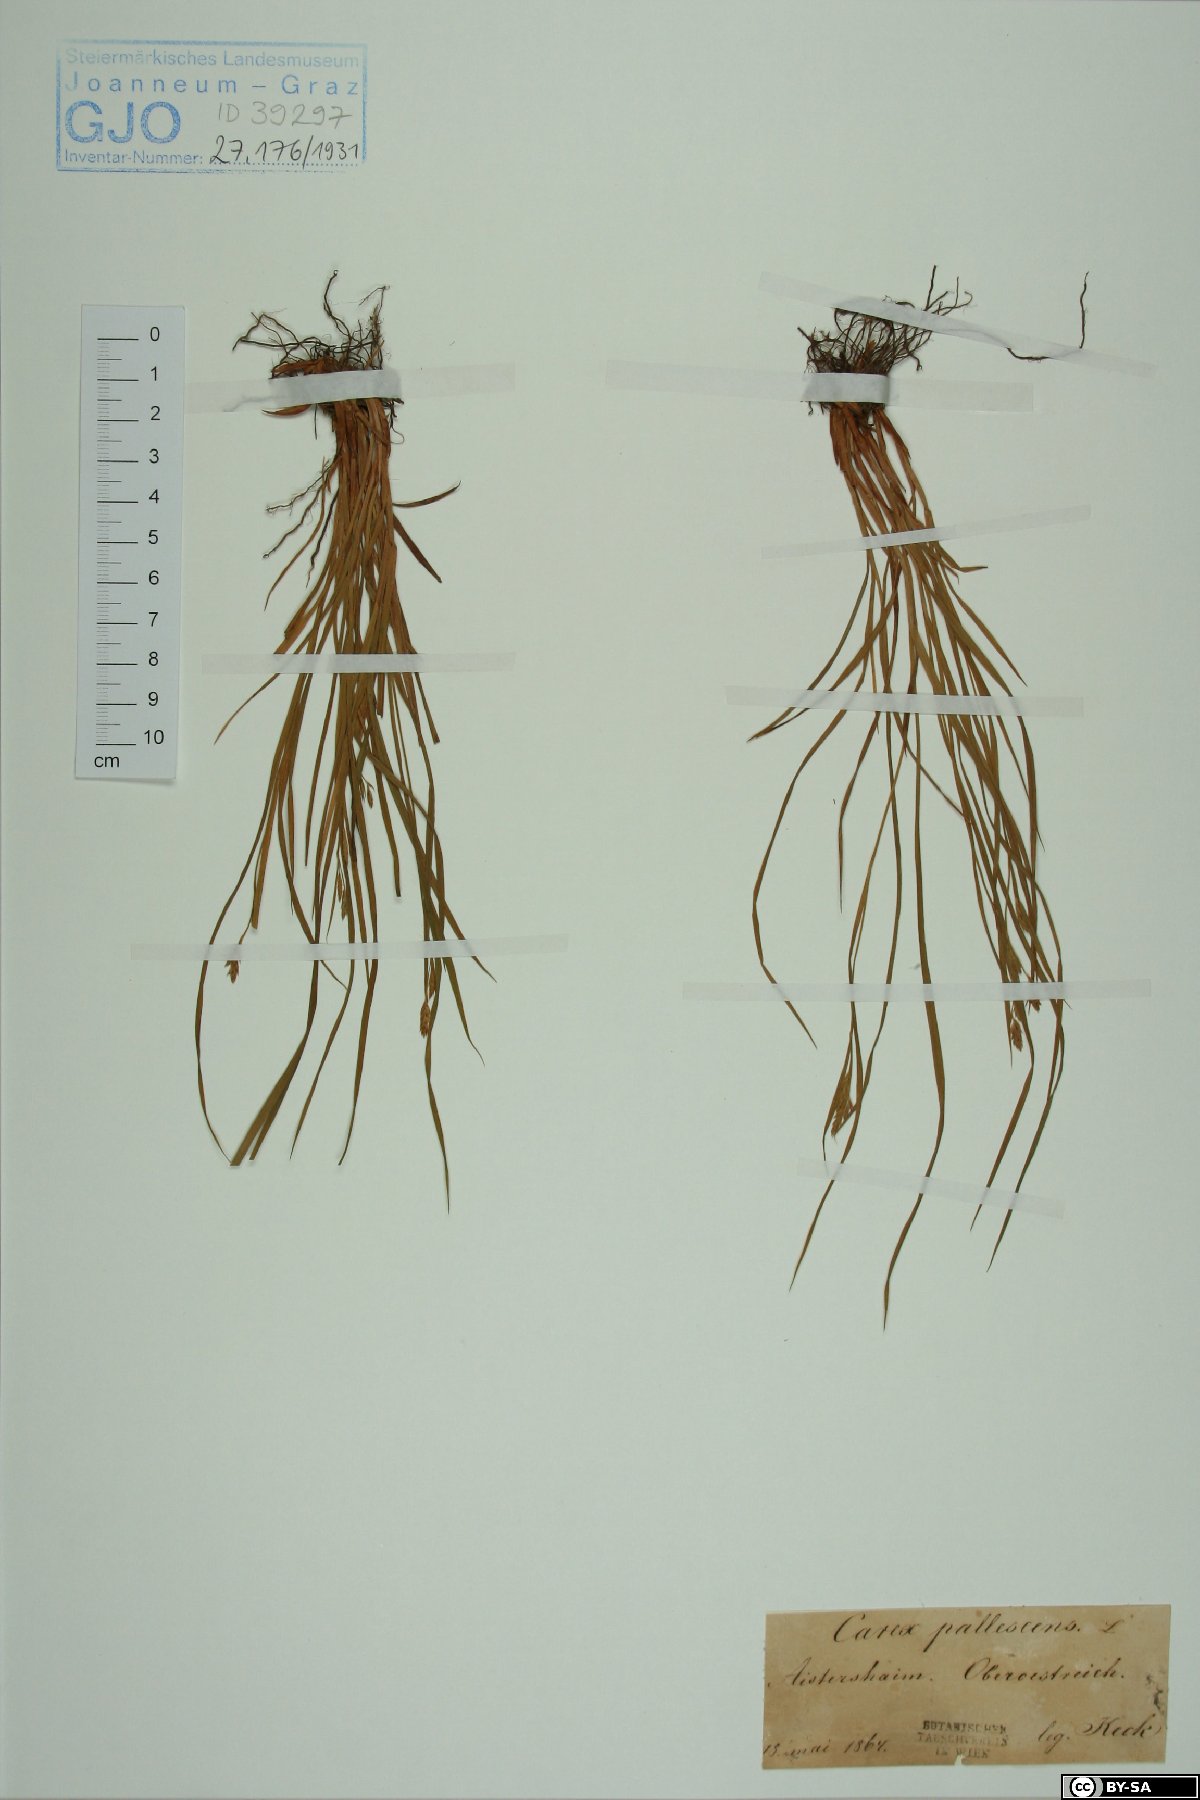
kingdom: Plantae
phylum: Tracheophyta
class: Liliopsida
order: Poales
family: Cyperaceae
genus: Carex
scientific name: Carex pallescens
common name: Pale sedge
